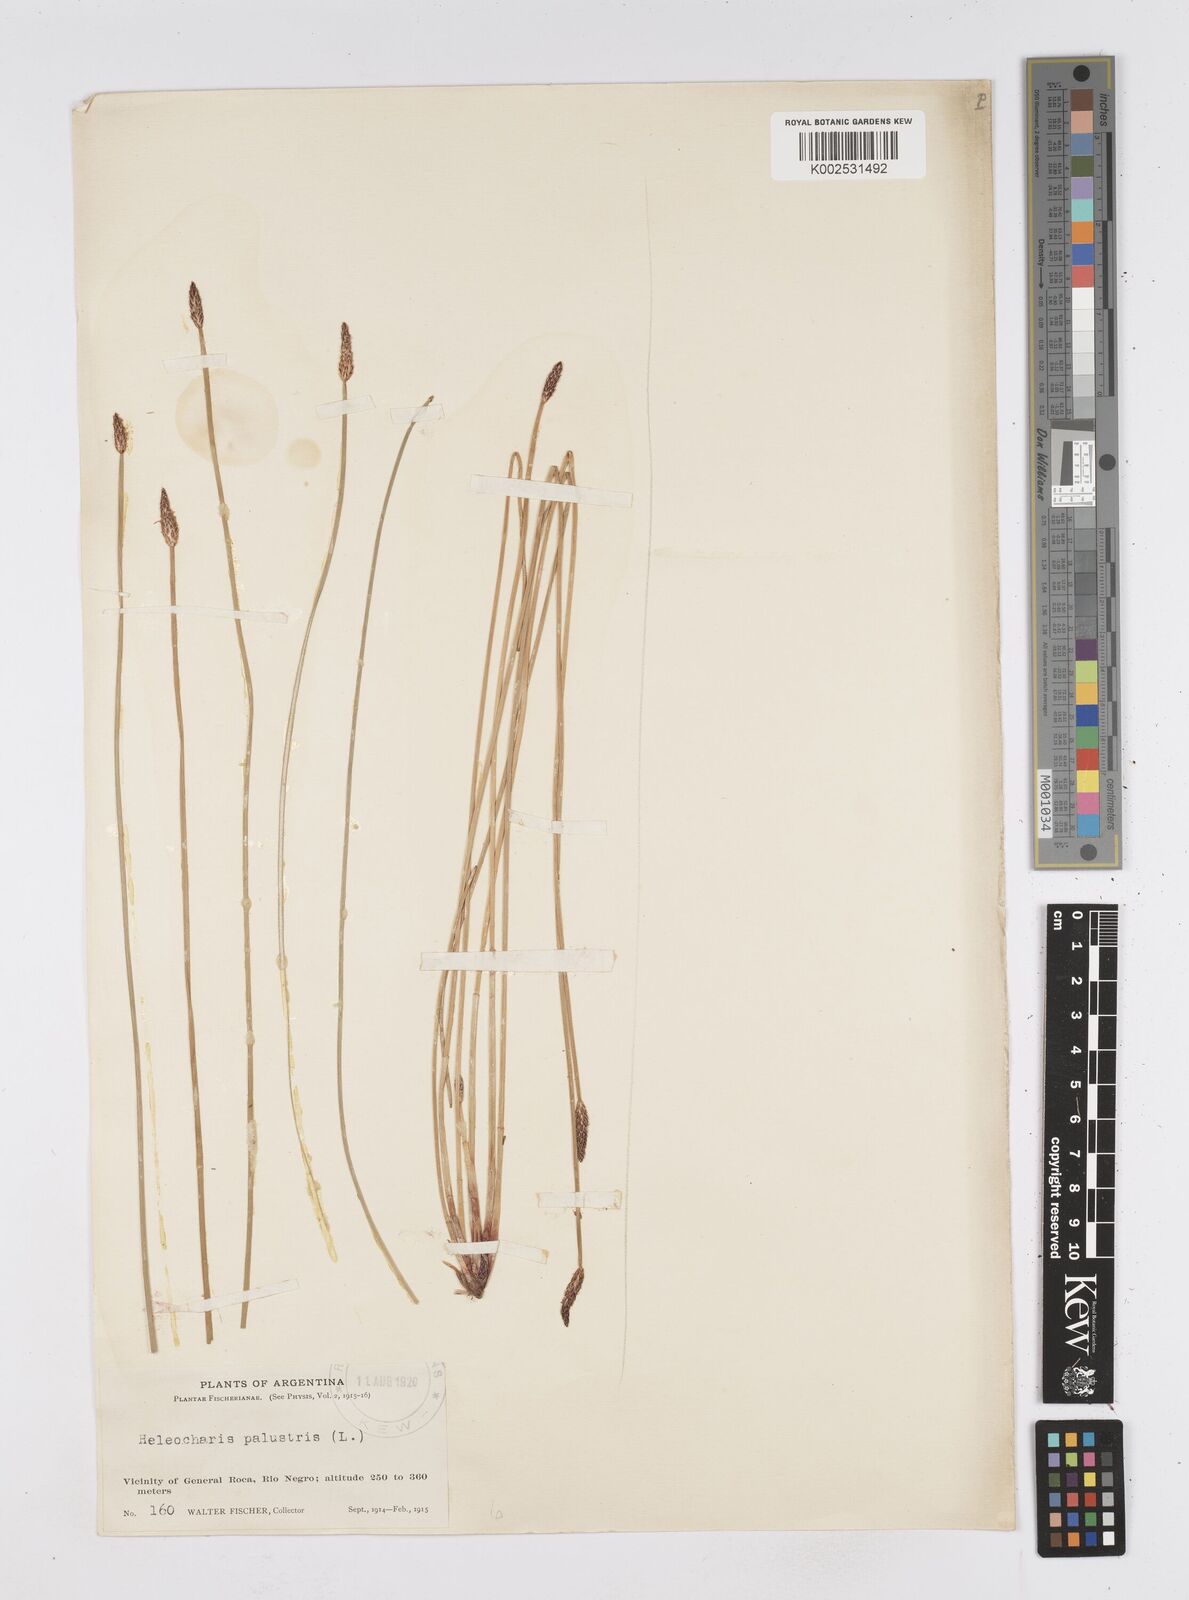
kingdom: Plantae
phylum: Tracheophyta
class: Liliopsida
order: Poales
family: Cyperaceae
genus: Eleocharis
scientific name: Eleocharis palustris
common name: Common spike-rush
